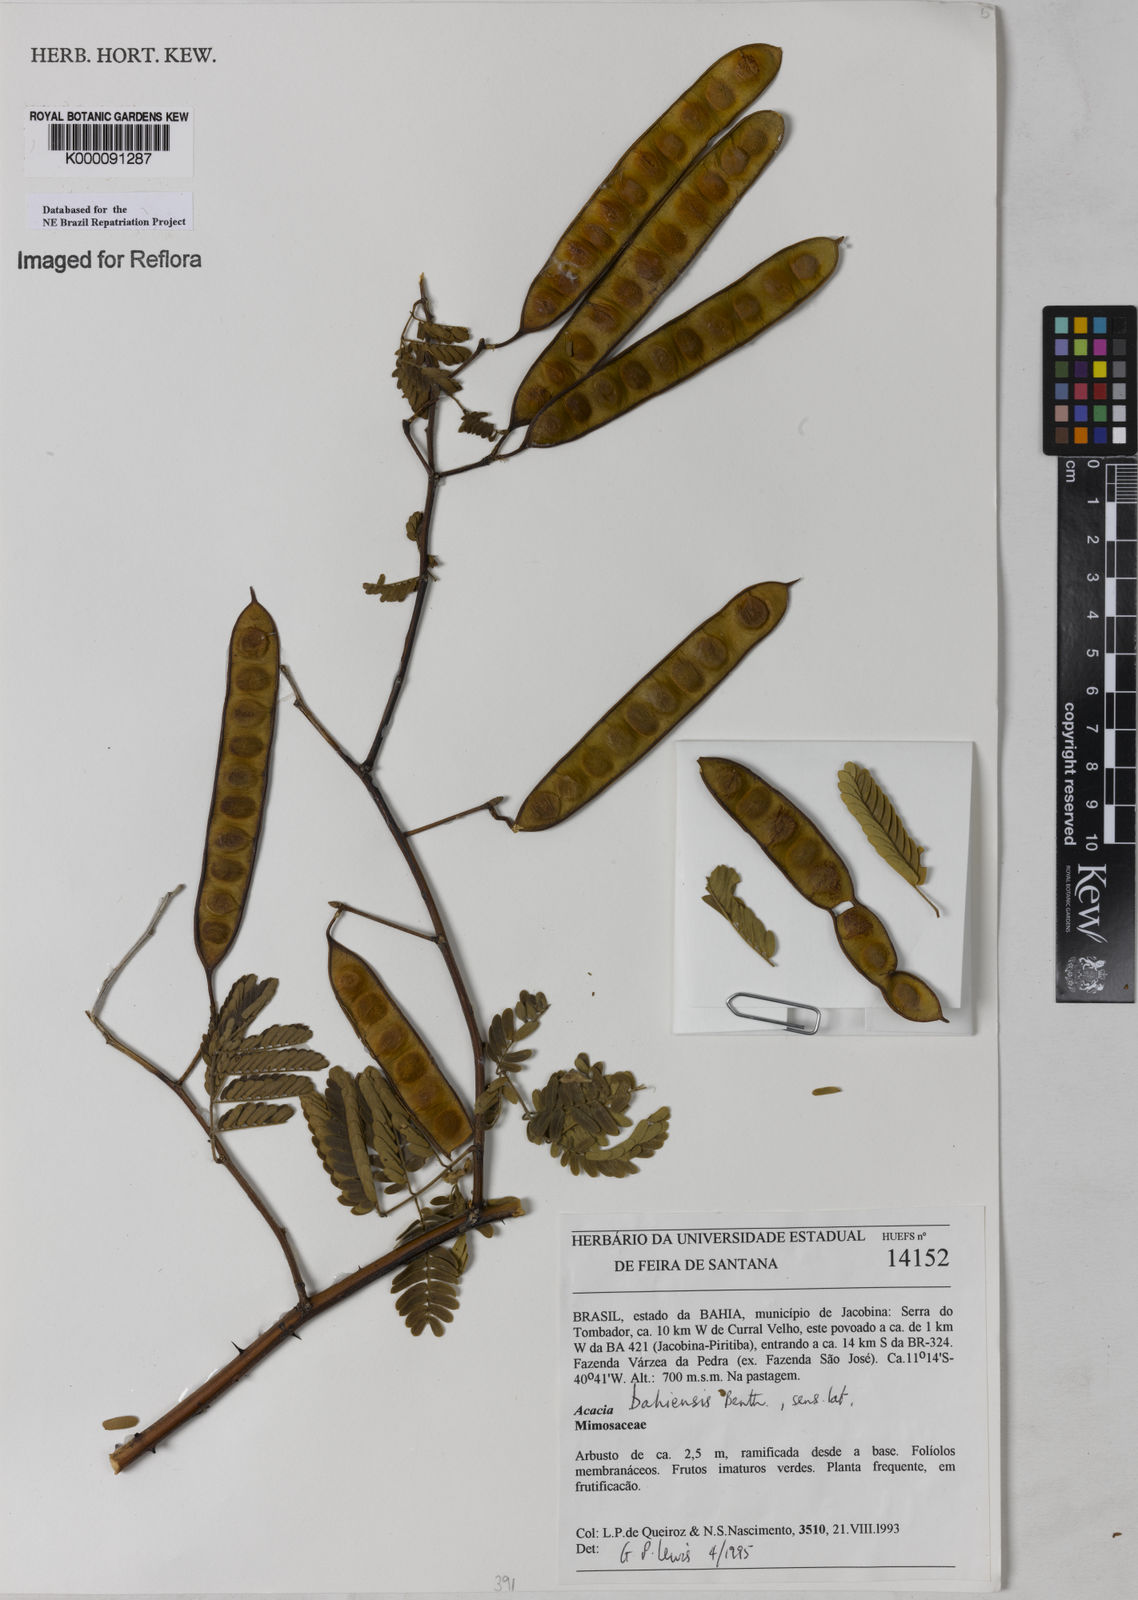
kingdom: Plantae
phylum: Tracheophyta
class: Magnoliopsida
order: Fabales
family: Fabaceae
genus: Senegalia
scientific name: Senegalia bahiensis
